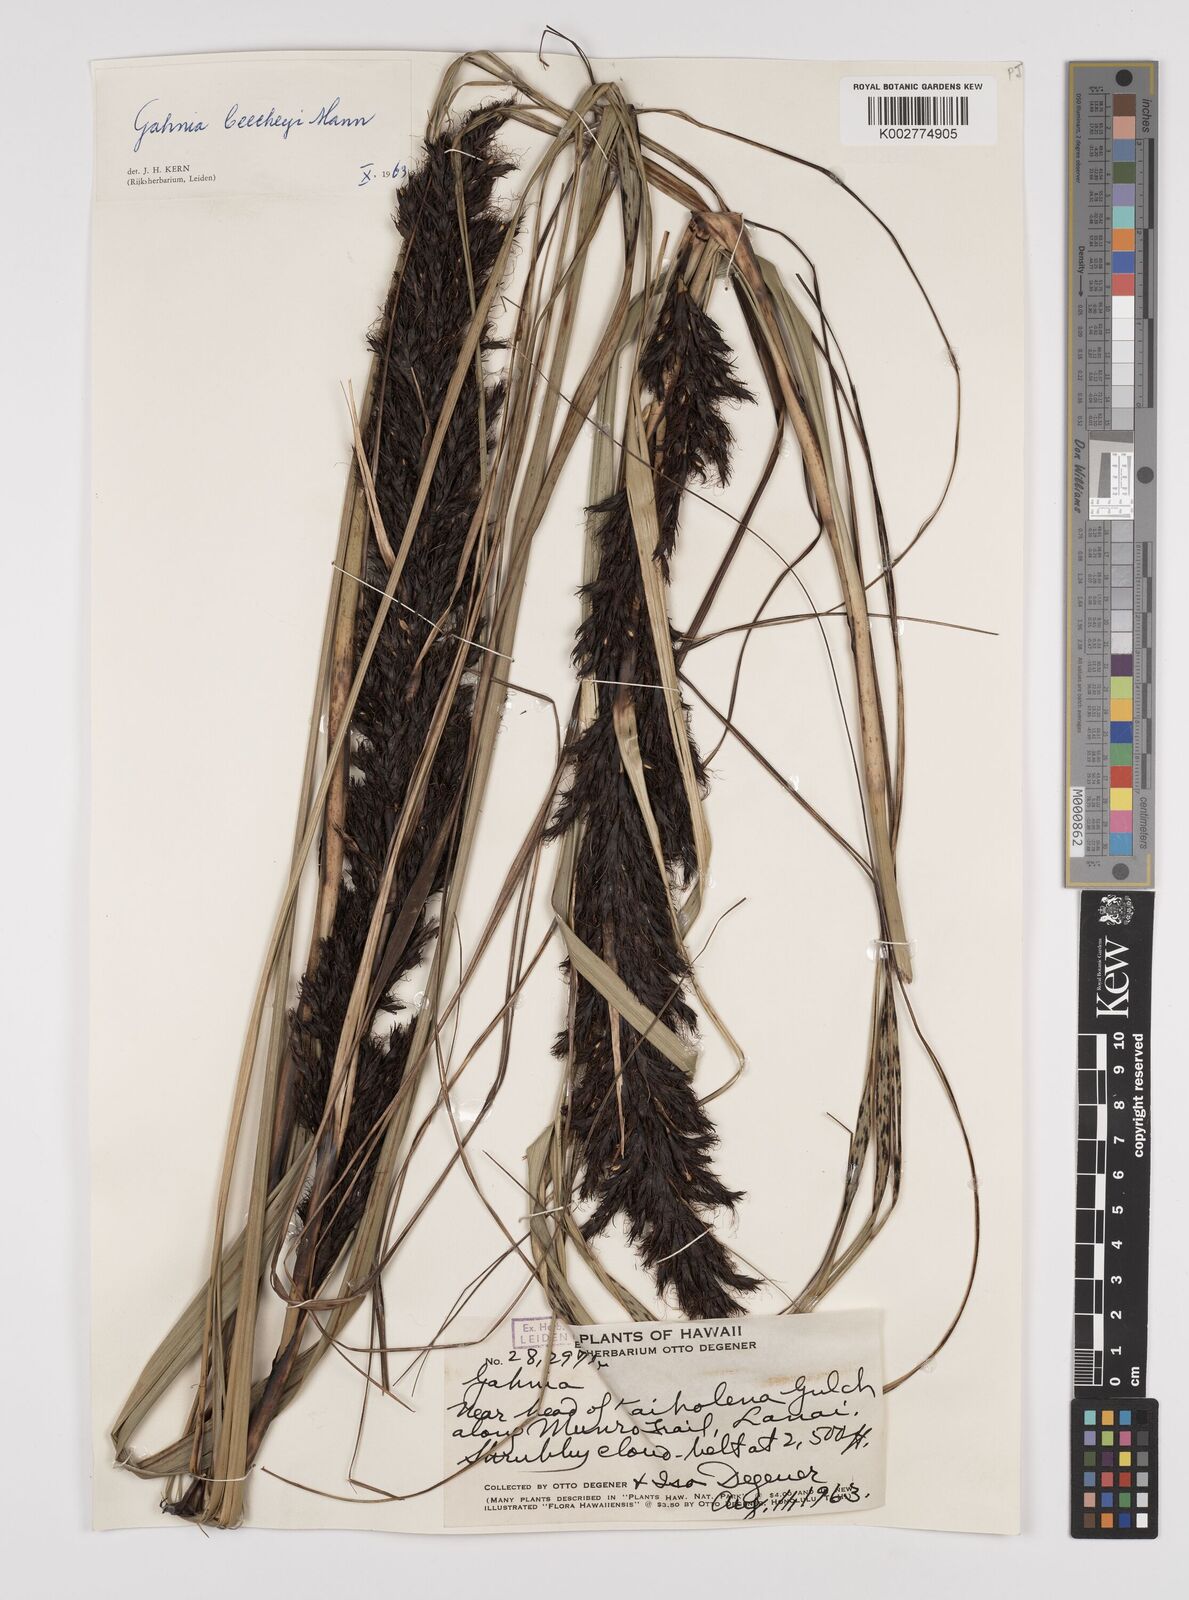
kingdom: Plantae
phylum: Tracheophyta
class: Liliopsida
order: Poales
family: Cyperaceae
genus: Gahnia
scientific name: Gahnia beecheyi
